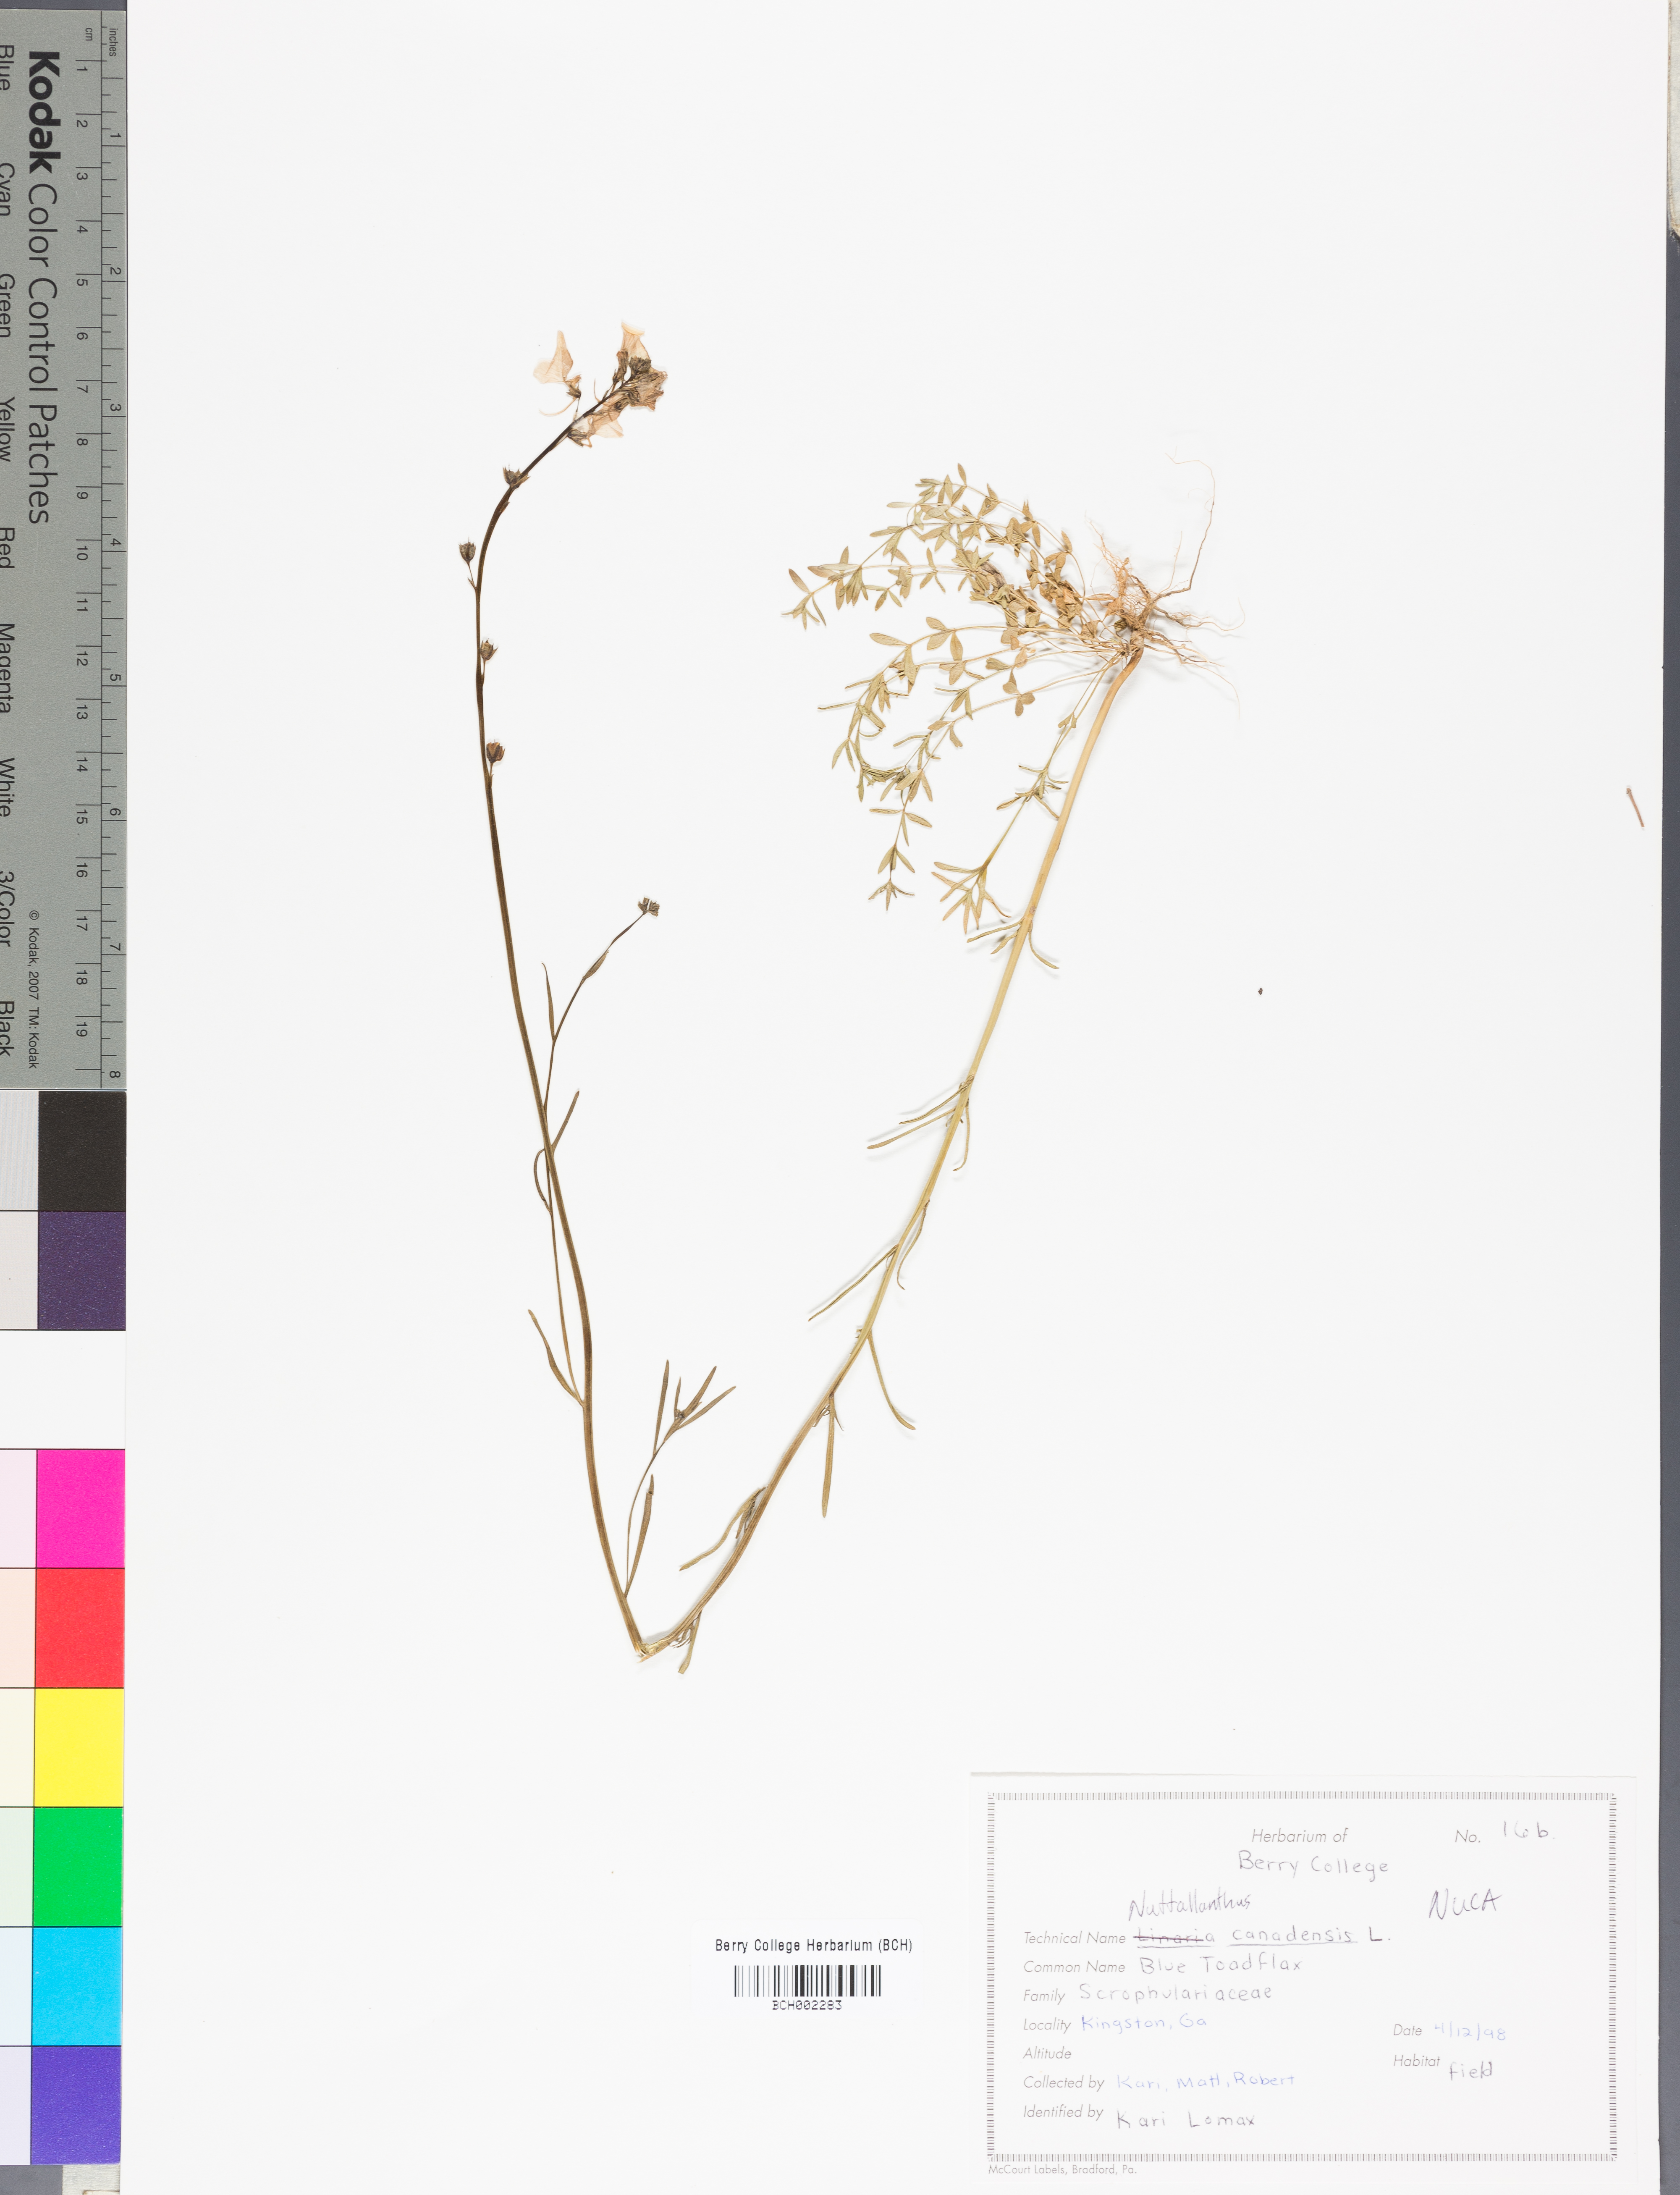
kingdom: Plantae
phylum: Tracheophyta
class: Magnoliopsida
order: Lamiales
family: Plantaginaceae
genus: Nuttallanthus
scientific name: Nuttallanthus canadensis
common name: Blue toadflax
